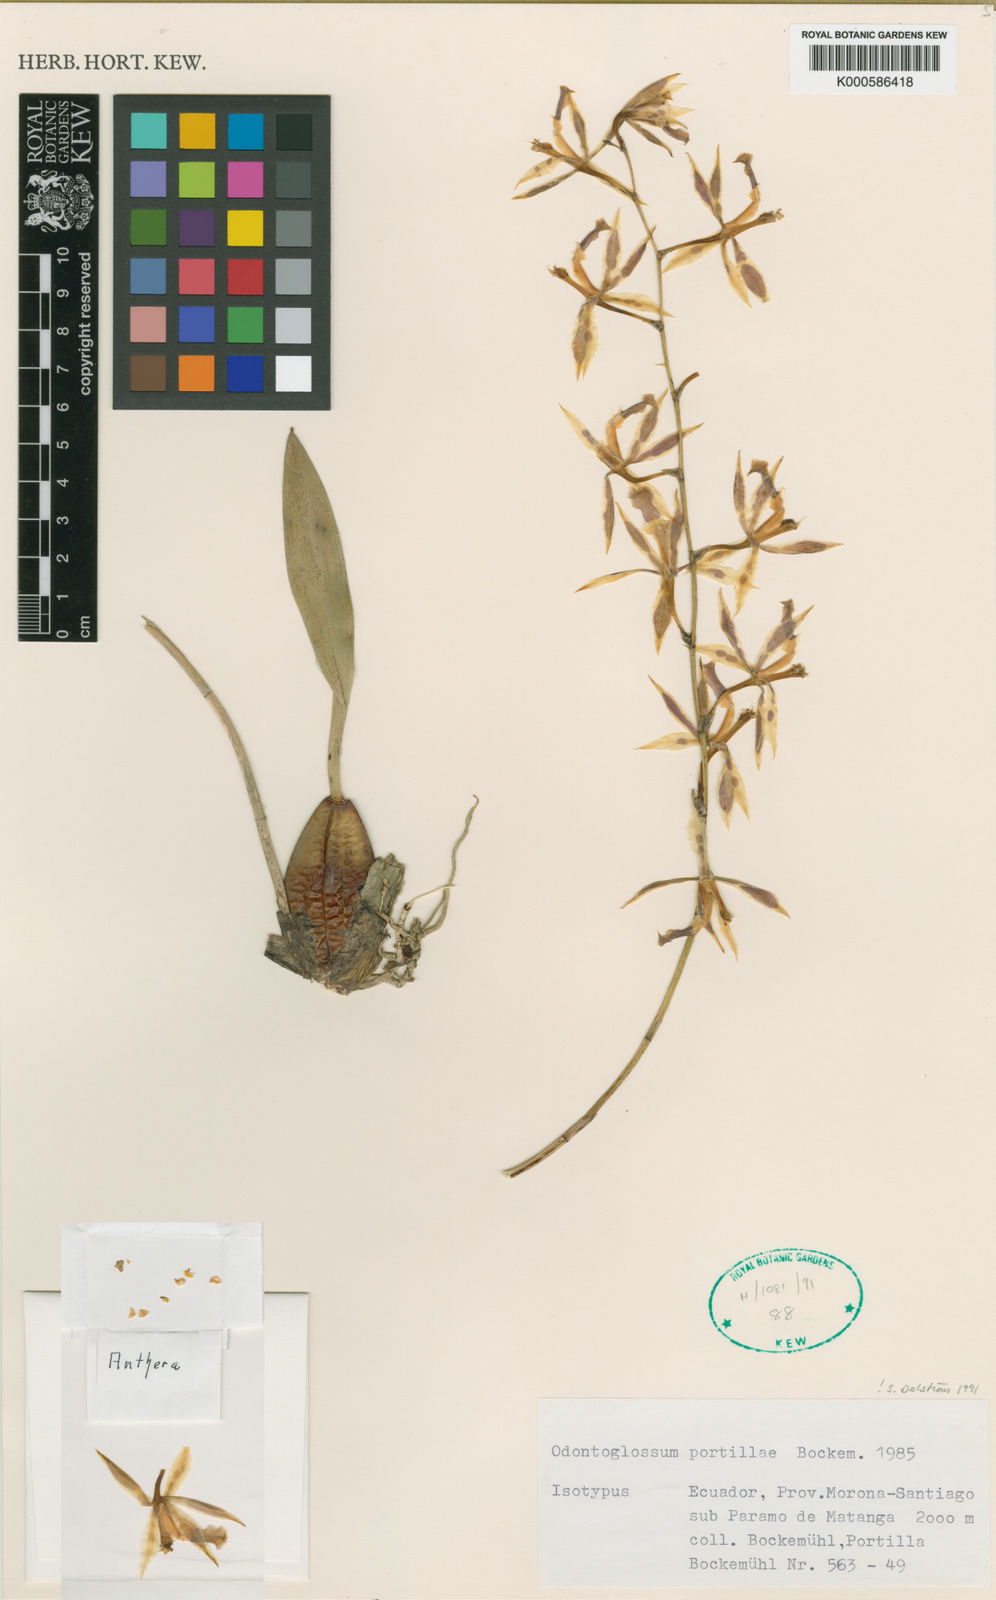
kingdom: Plantae
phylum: Tracheophyta
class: Liliopsida
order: Asparagales
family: Orchidaceae
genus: Oncidium
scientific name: Oncidium portilloides
